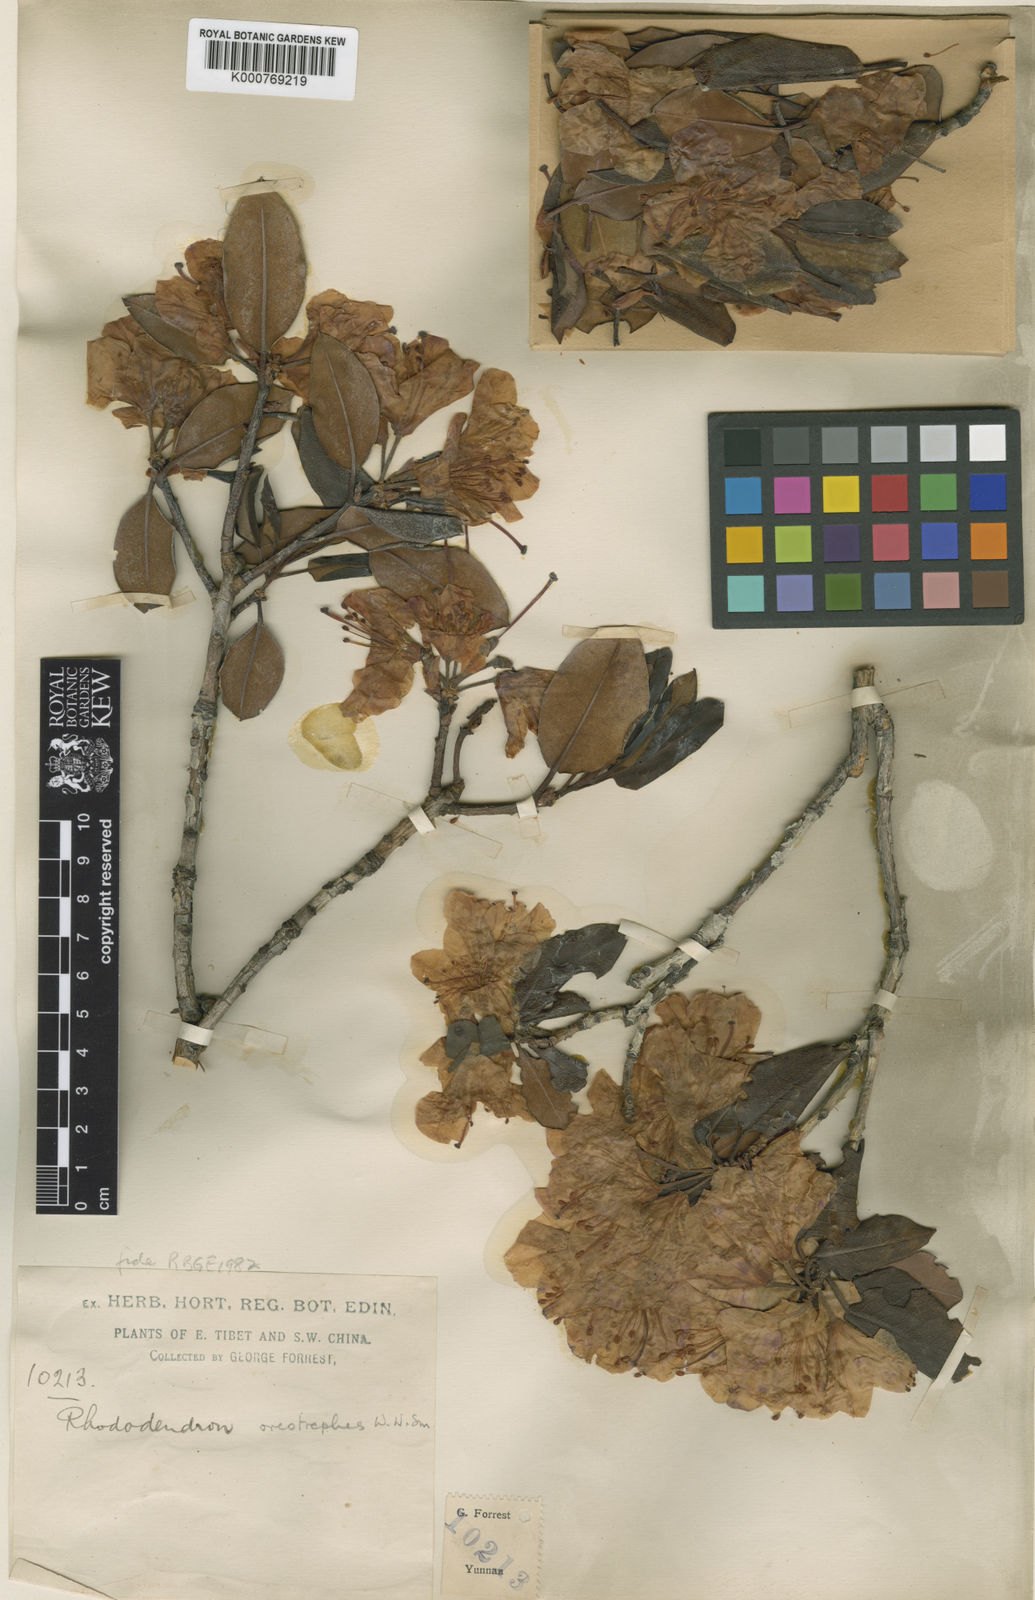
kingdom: Plantae
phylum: Tracheophyta
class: Magnoliopsida
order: Ericales
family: Ericaceae
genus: Rhododendron
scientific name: Rhododendron oreotrephes
